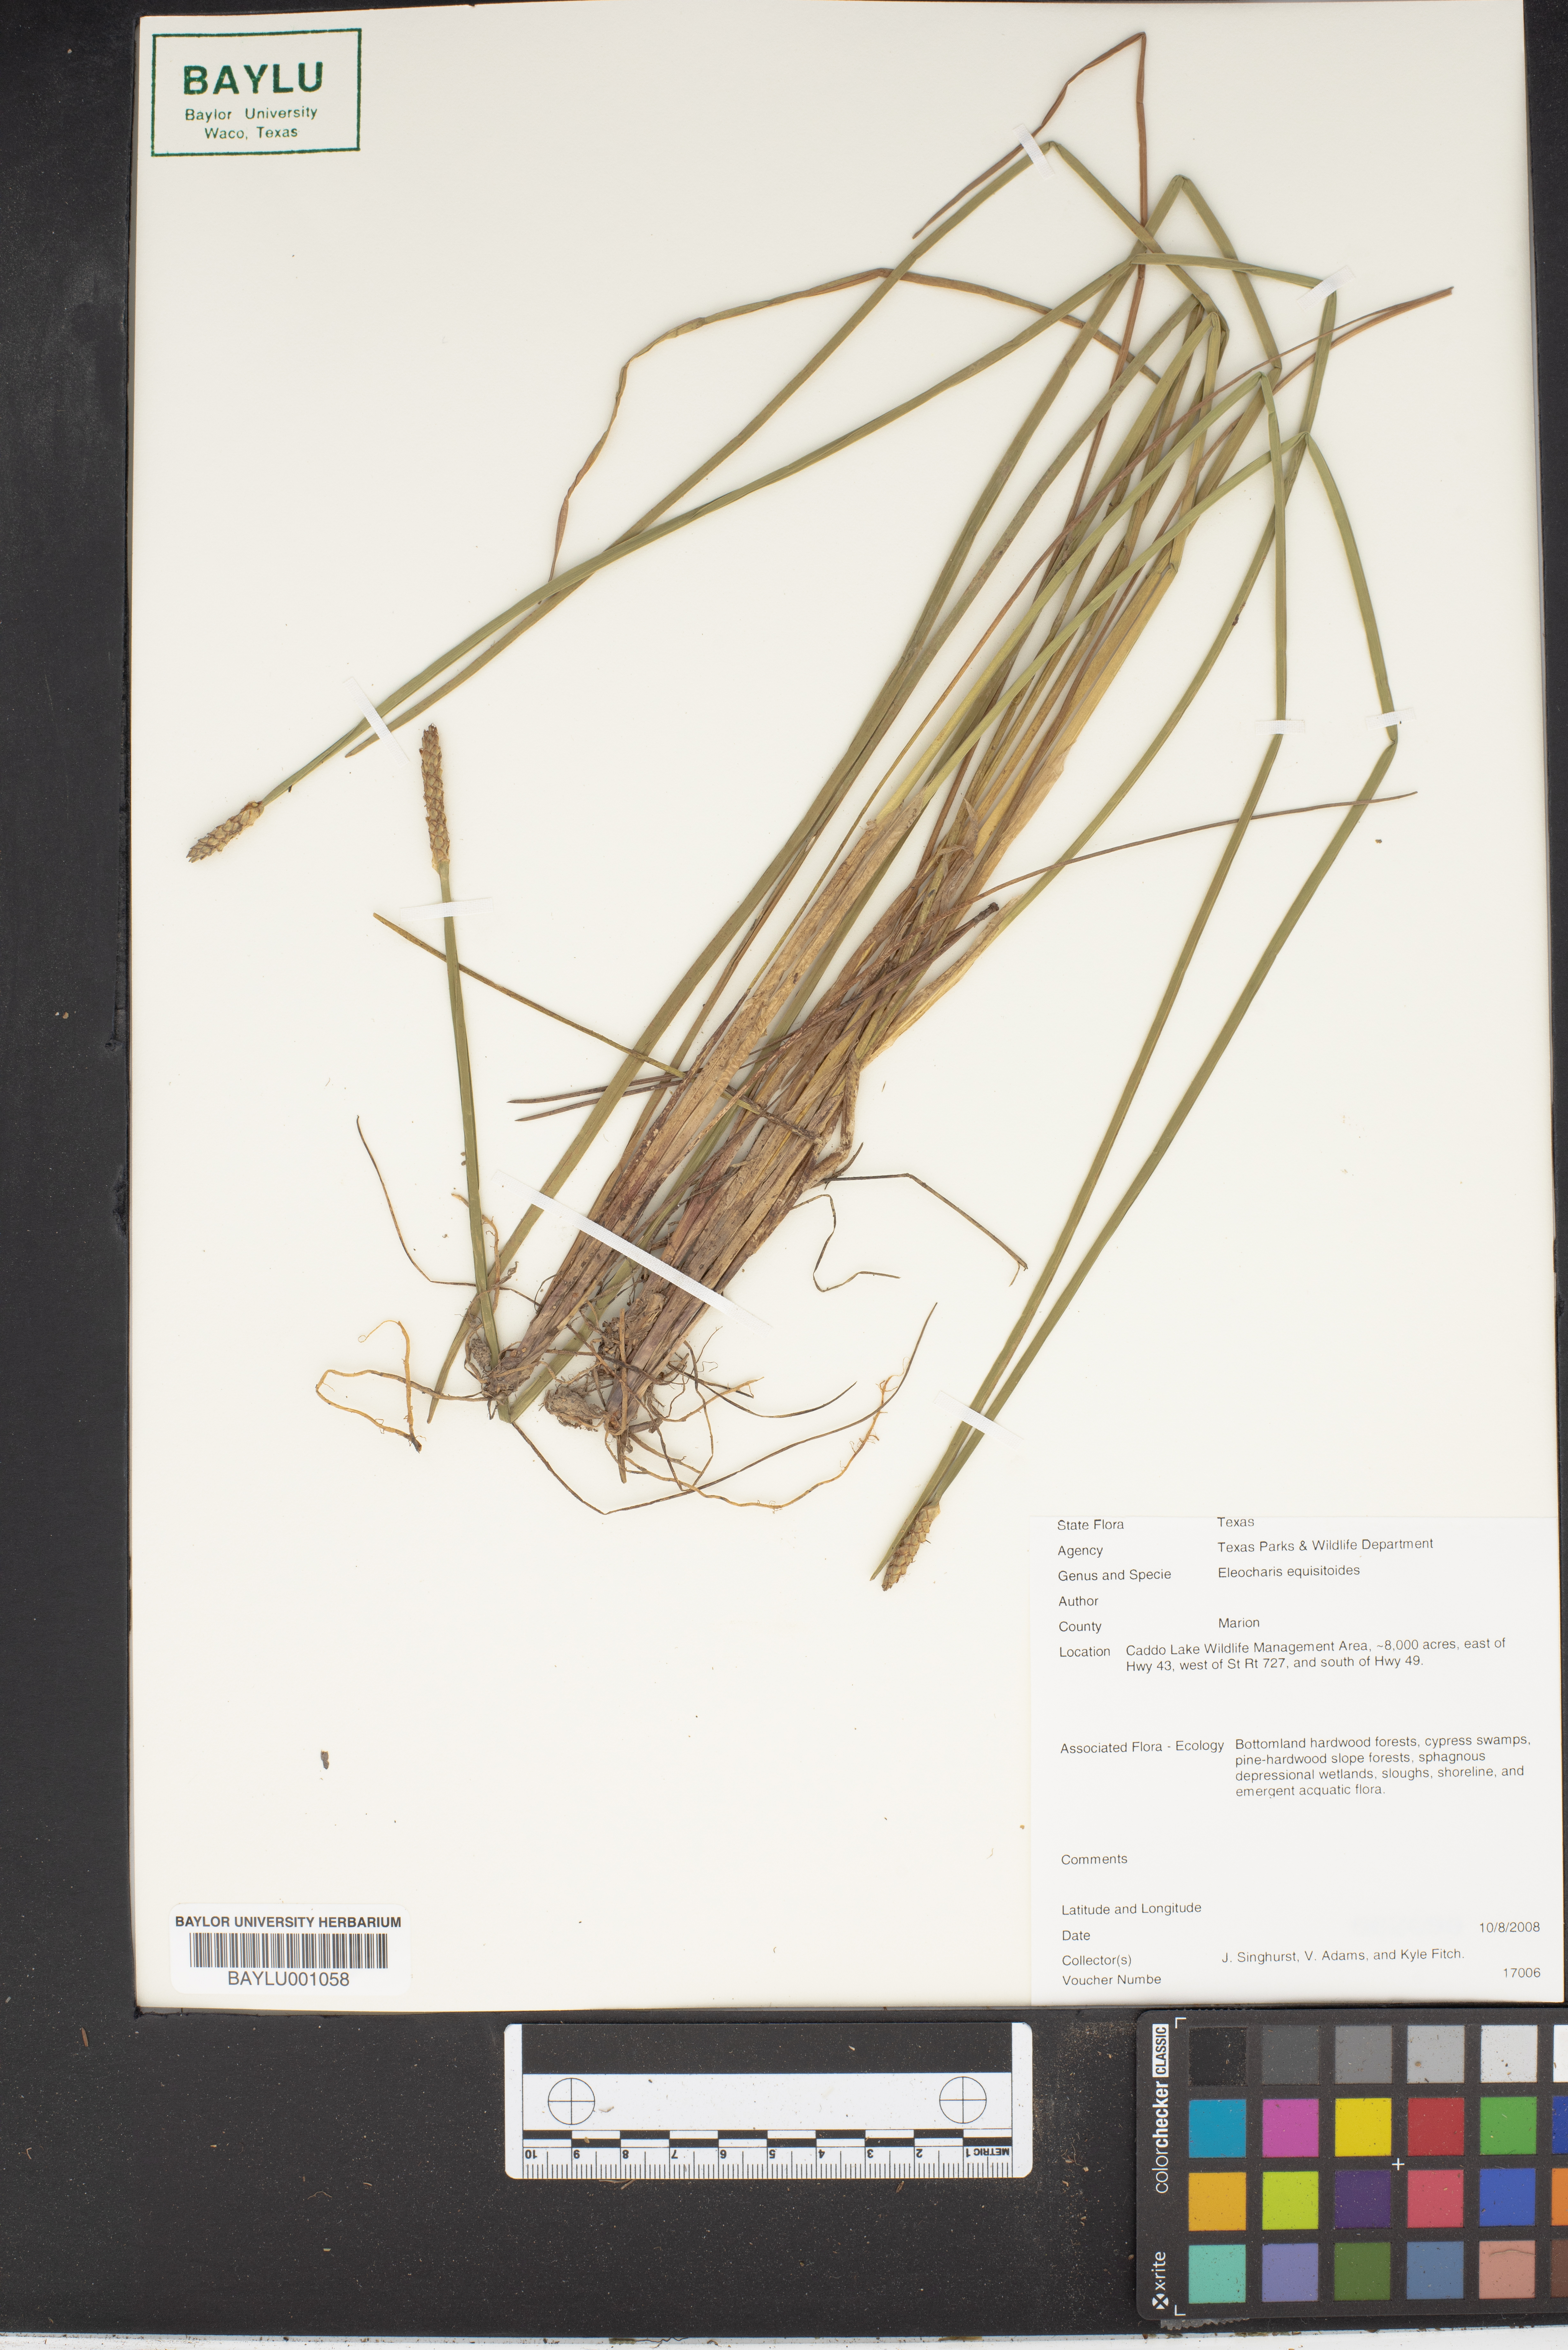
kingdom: Plantae
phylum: Tracheophyta
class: Liliopsida
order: Poales
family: Cyperaceae
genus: Eleocharis
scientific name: Eleocharis equisetoides
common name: Horsetail spike-rush
